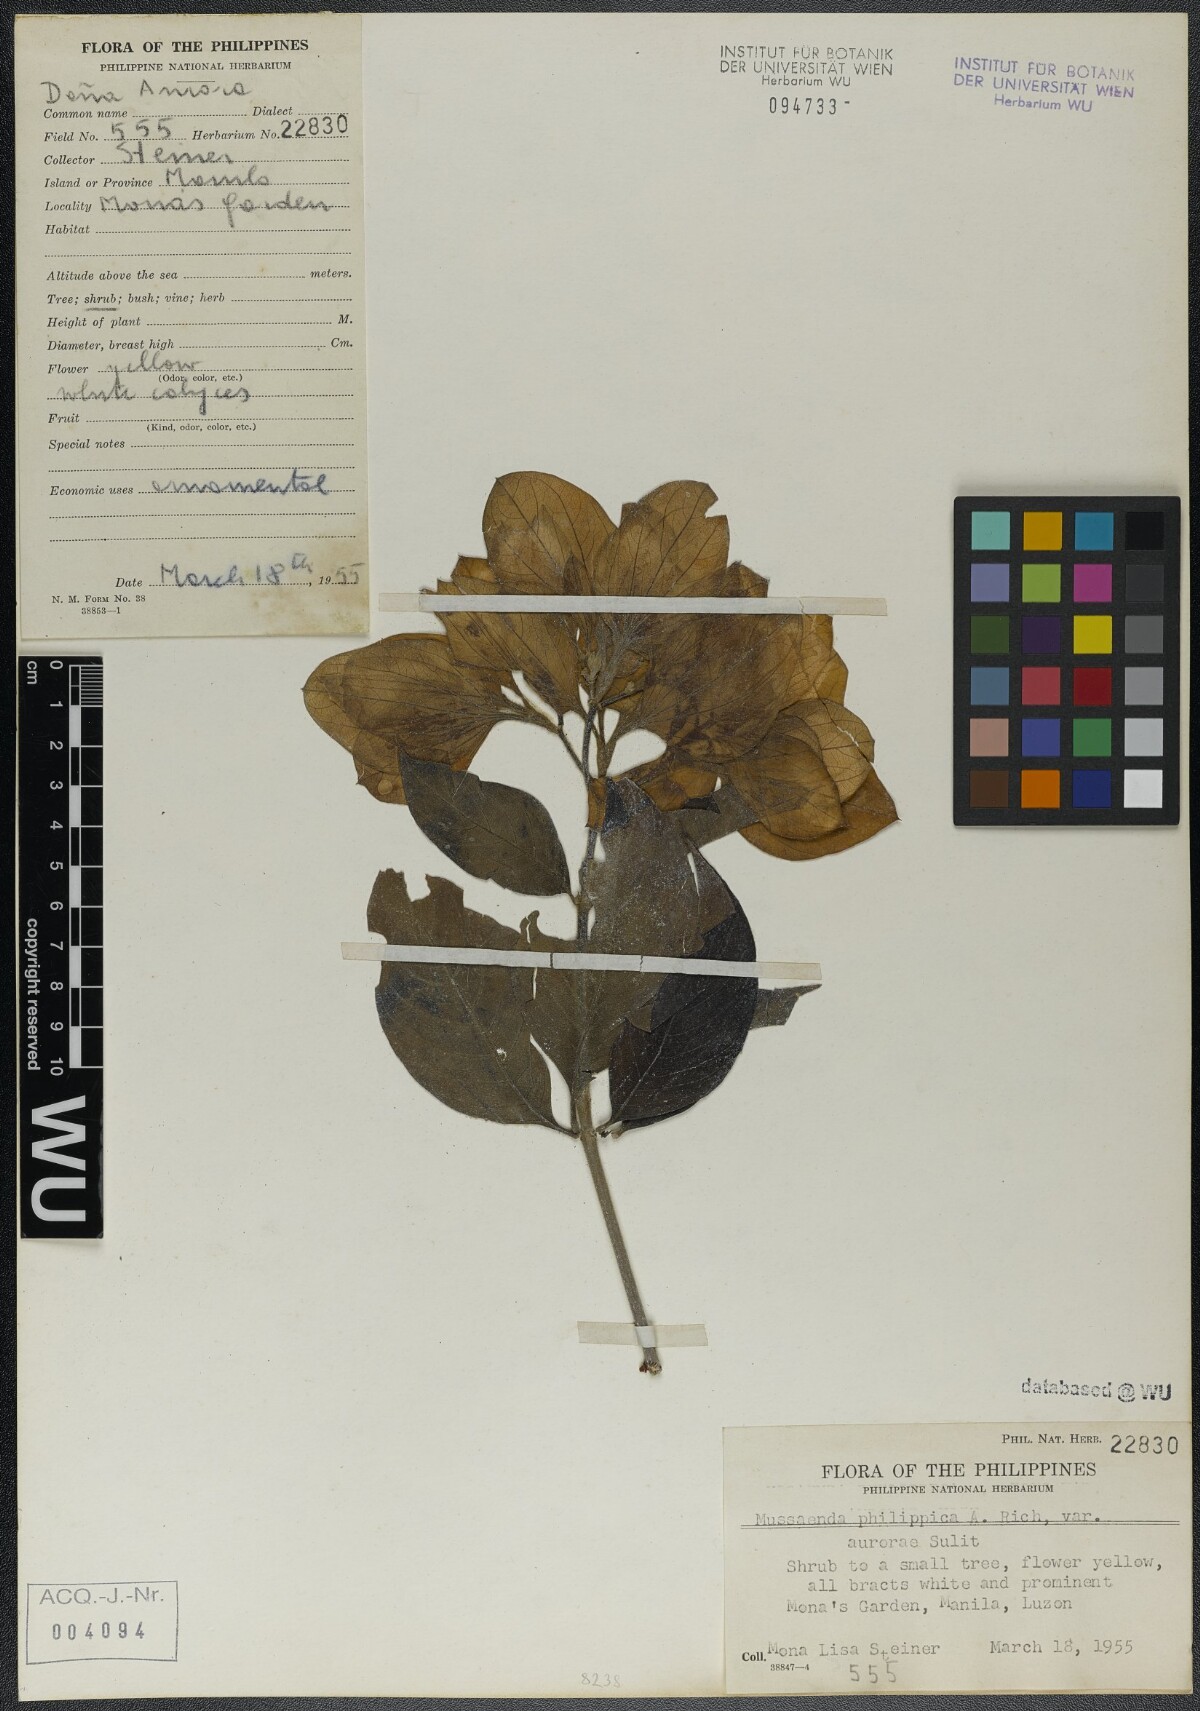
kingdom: Plantae
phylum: Tracheophyta
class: Magnoliopsida
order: Gentianales
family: Rubiaceae
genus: Mussaenda
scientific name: Mussaenda philippica
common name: Philippine mussaenda
